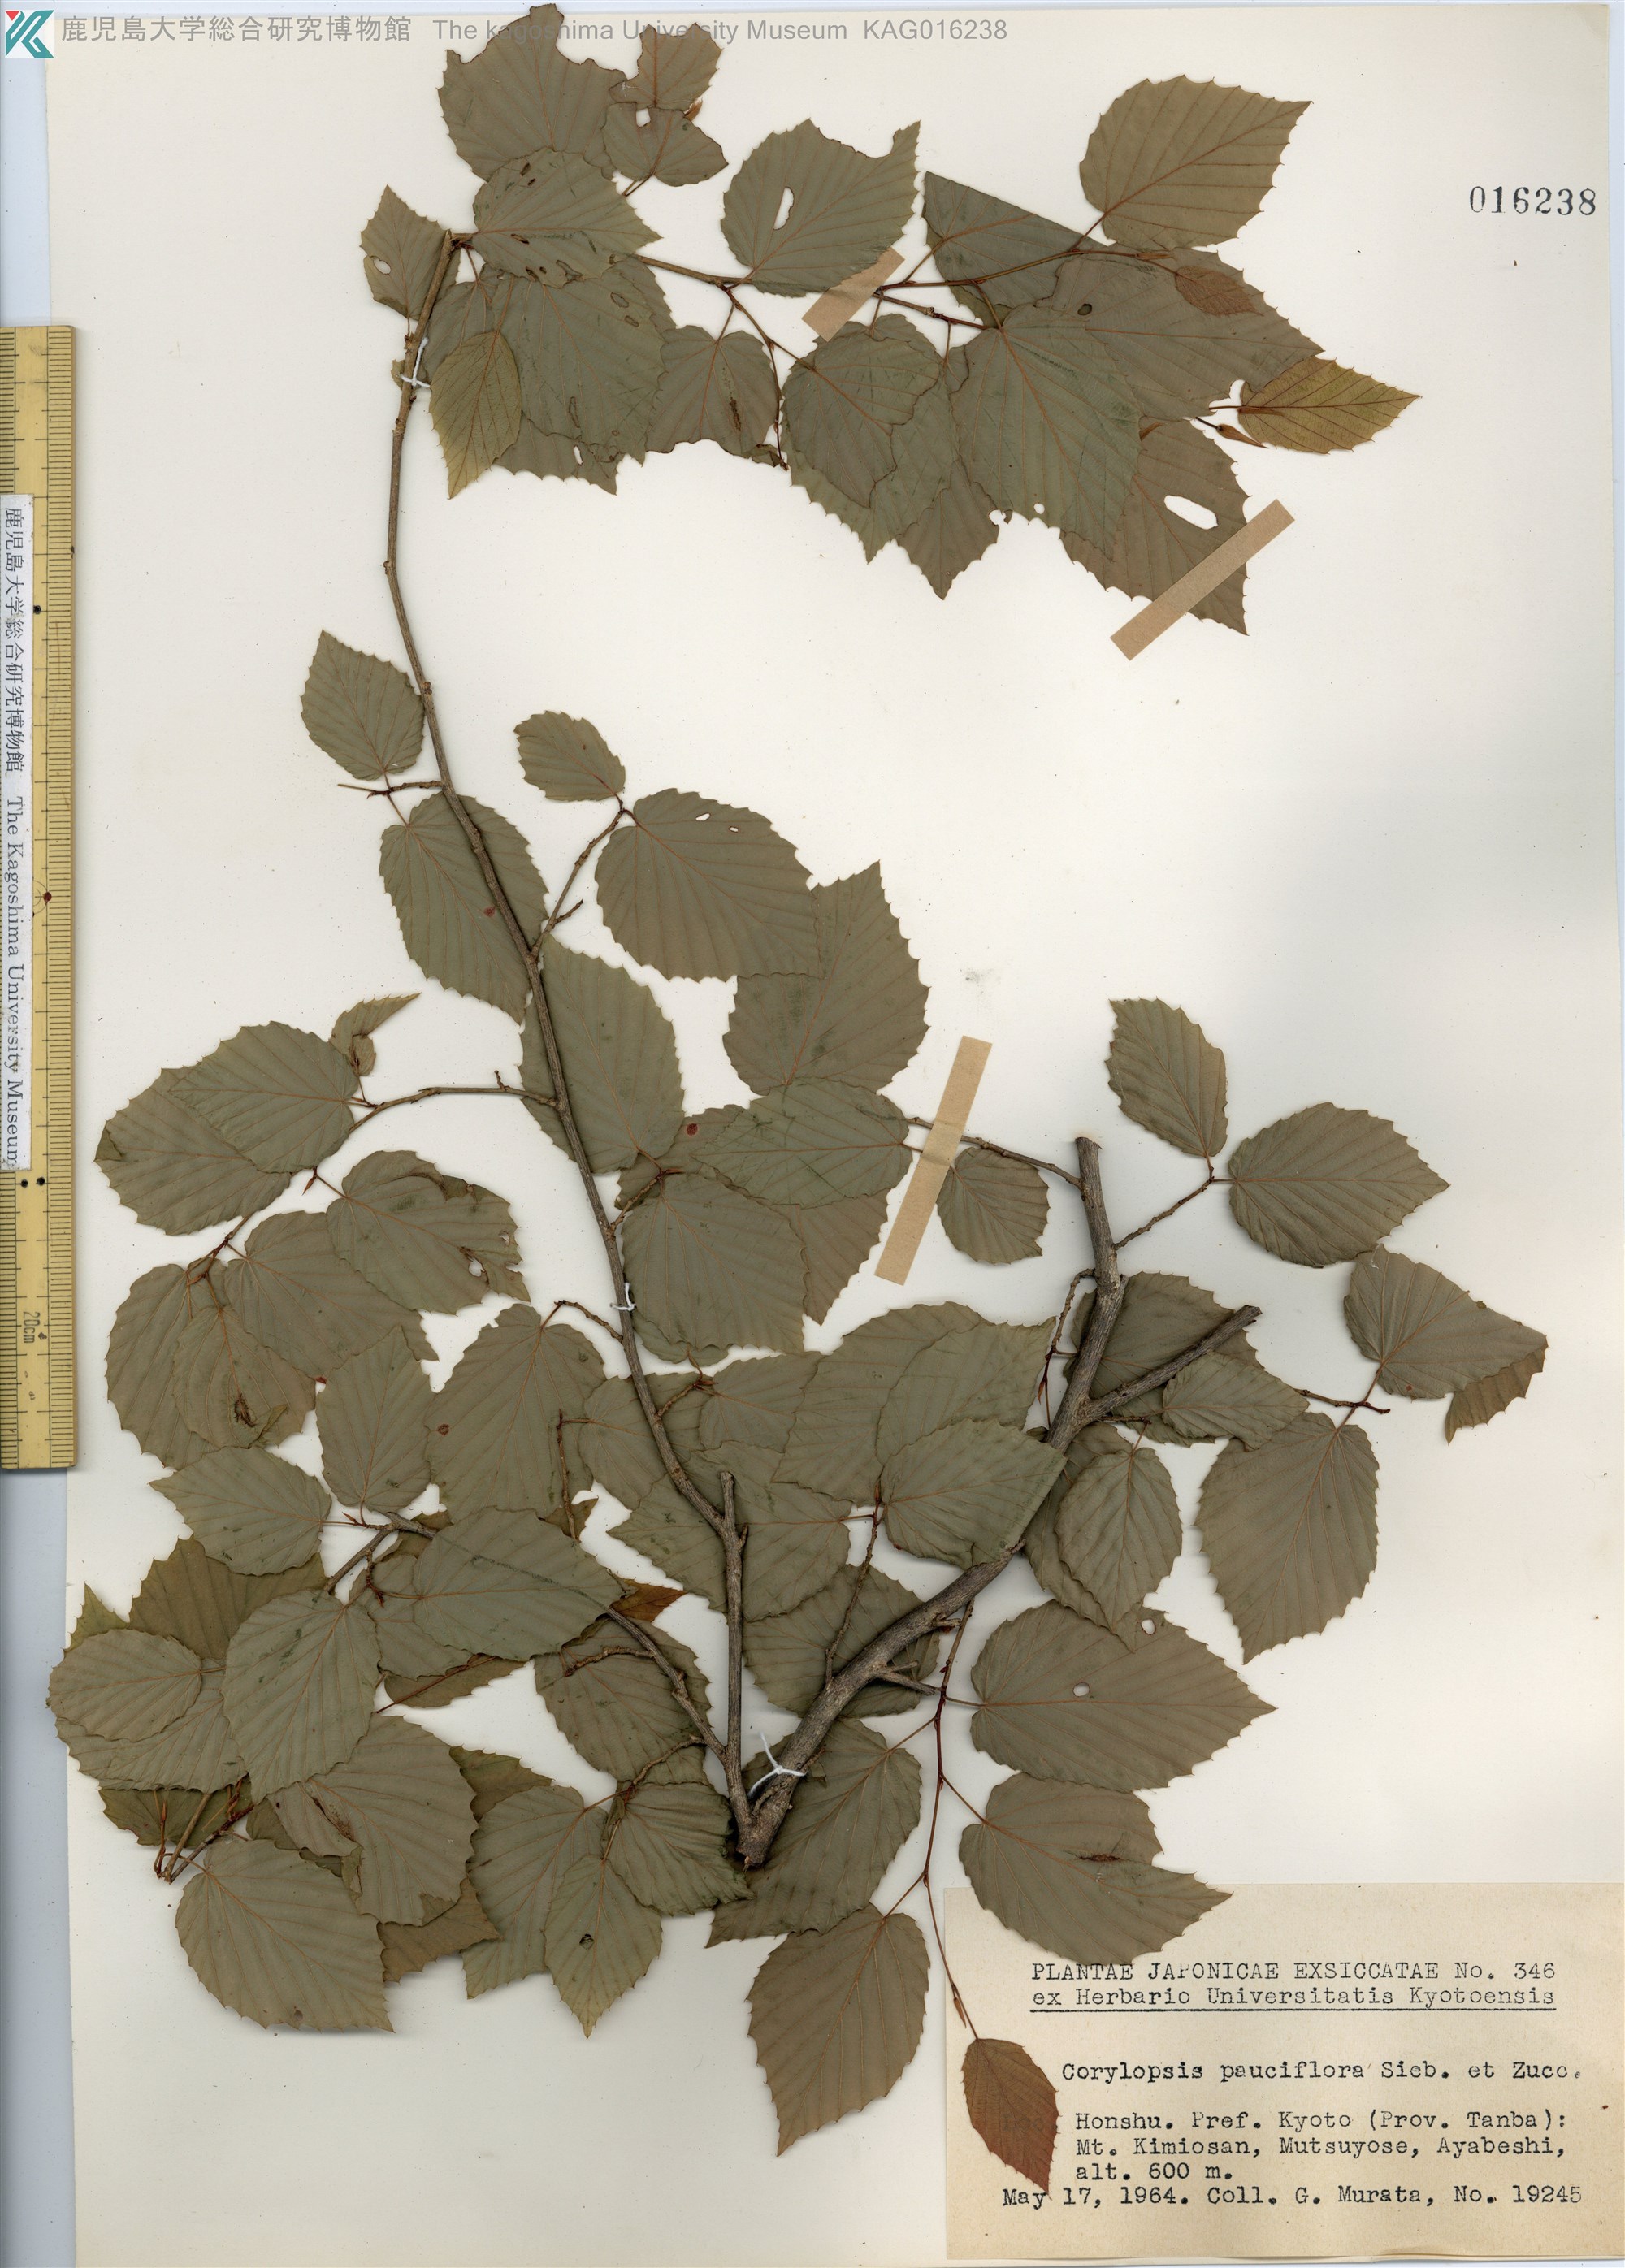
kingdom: Plantae
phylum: Tracheophyta
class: Magnoliopsida
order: Saxifragales
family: Hamamelidaceae
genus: Corylopsis
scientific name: Corylopsis pauciflora
